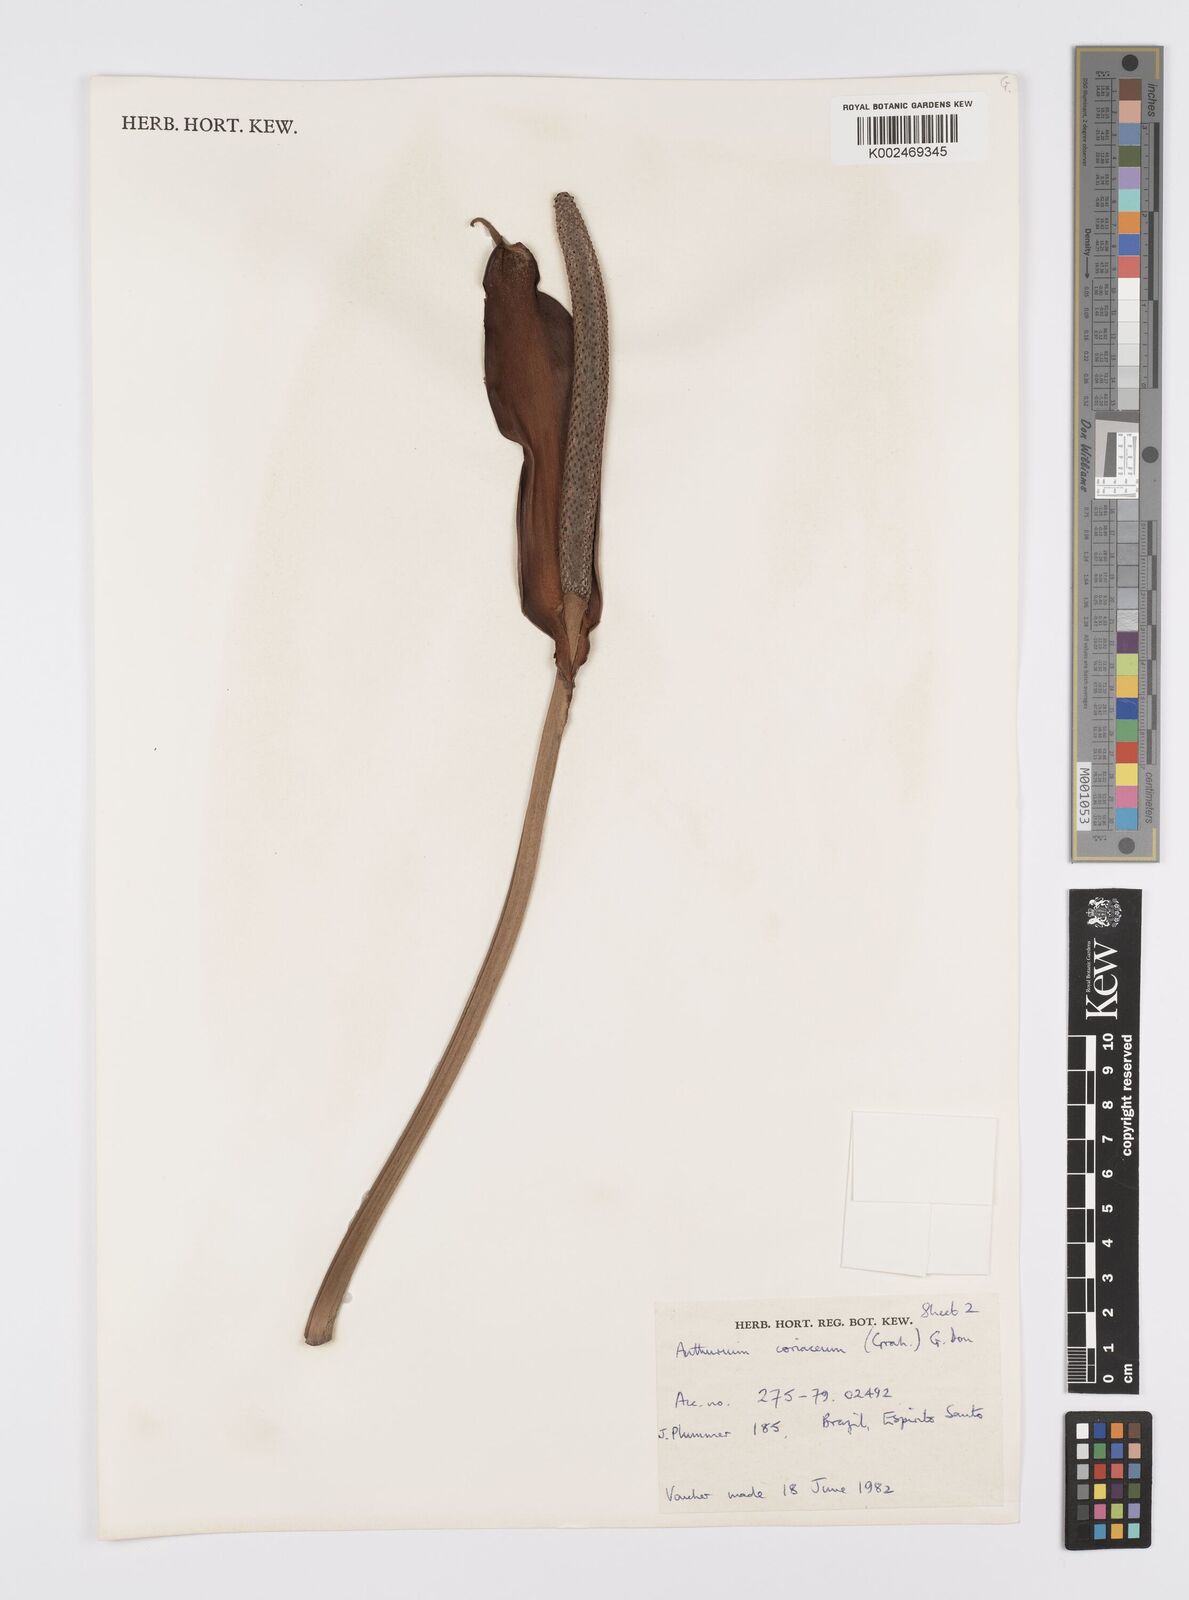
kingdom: Plantae
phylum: Tracheophyta
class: Liliopsida
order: Alismatales
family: Araceae
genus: Anthurium
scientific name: Anthurium coriaceum
